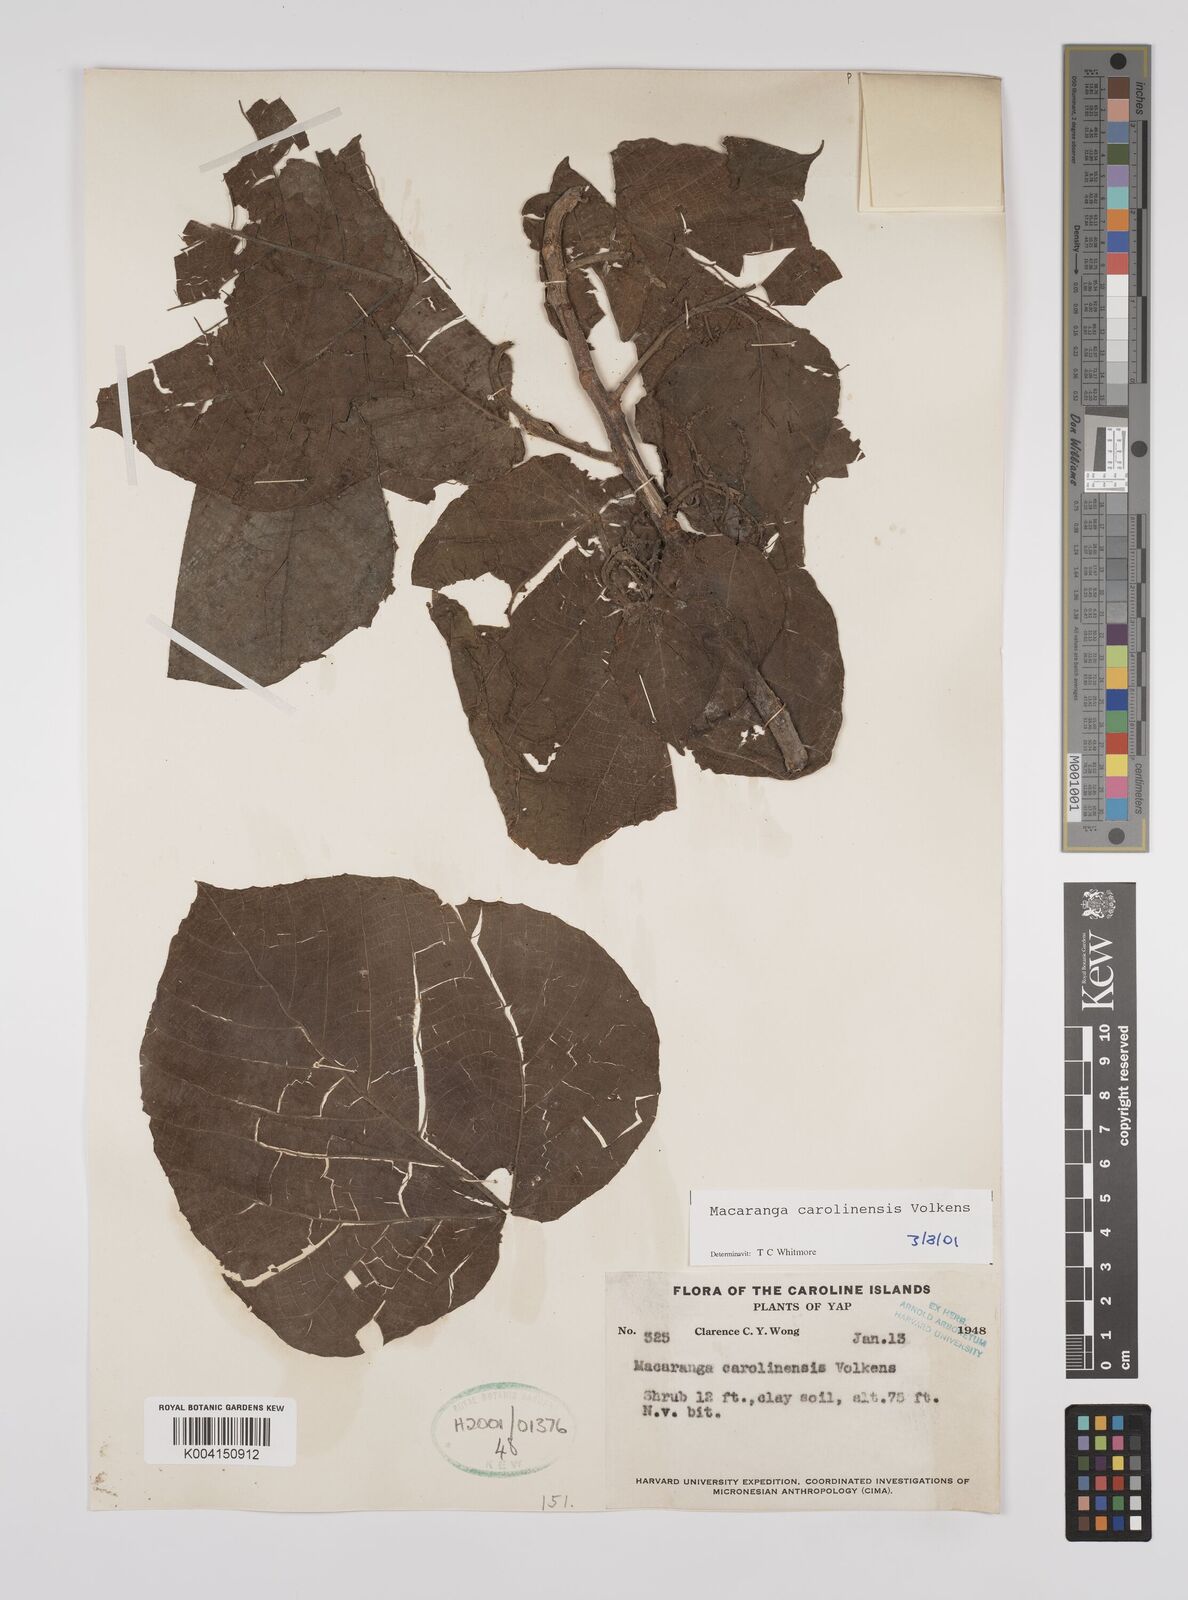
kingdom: Plantae
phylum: Tracheophyta
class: Magnoliopsida
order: Malpighiales
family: Euphorbiaceae
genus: Macaranga
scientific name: Macaranga carolinensis
